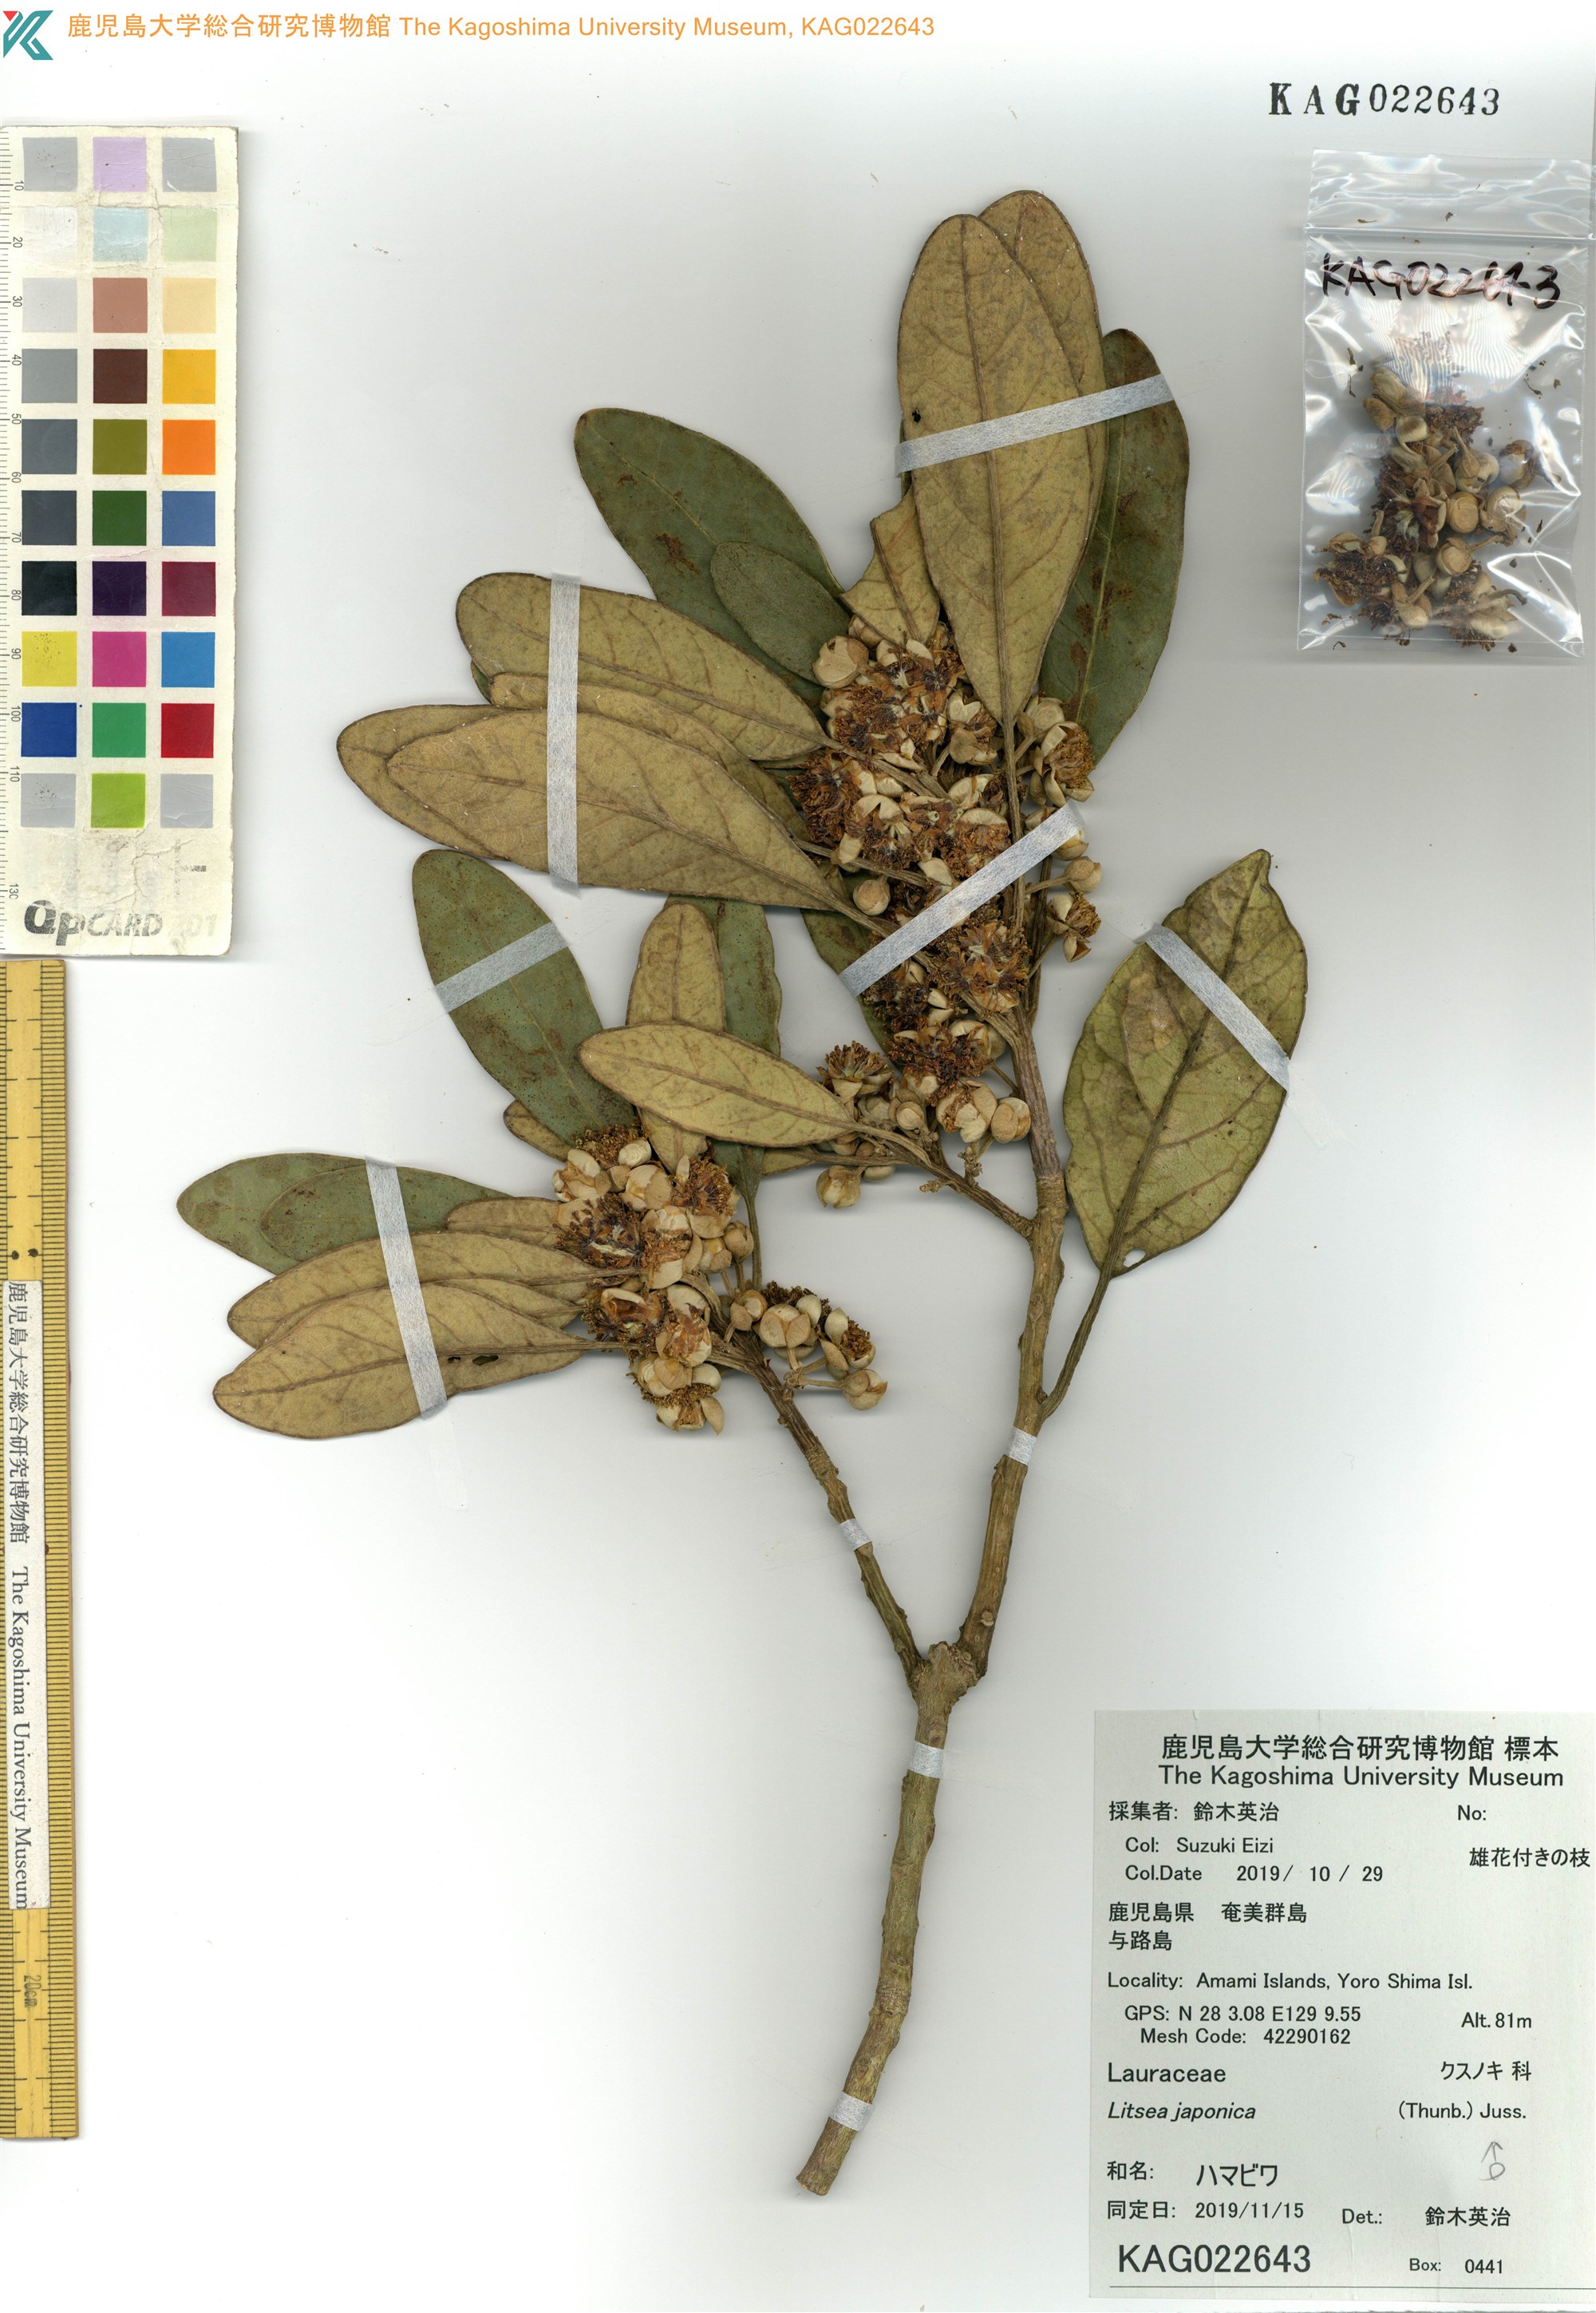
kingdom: Plantae
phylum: Tracheophyta
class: Magnoliopsida
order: Laurales
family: Lauraceae
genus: Litsea
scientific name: Litsea japonica
